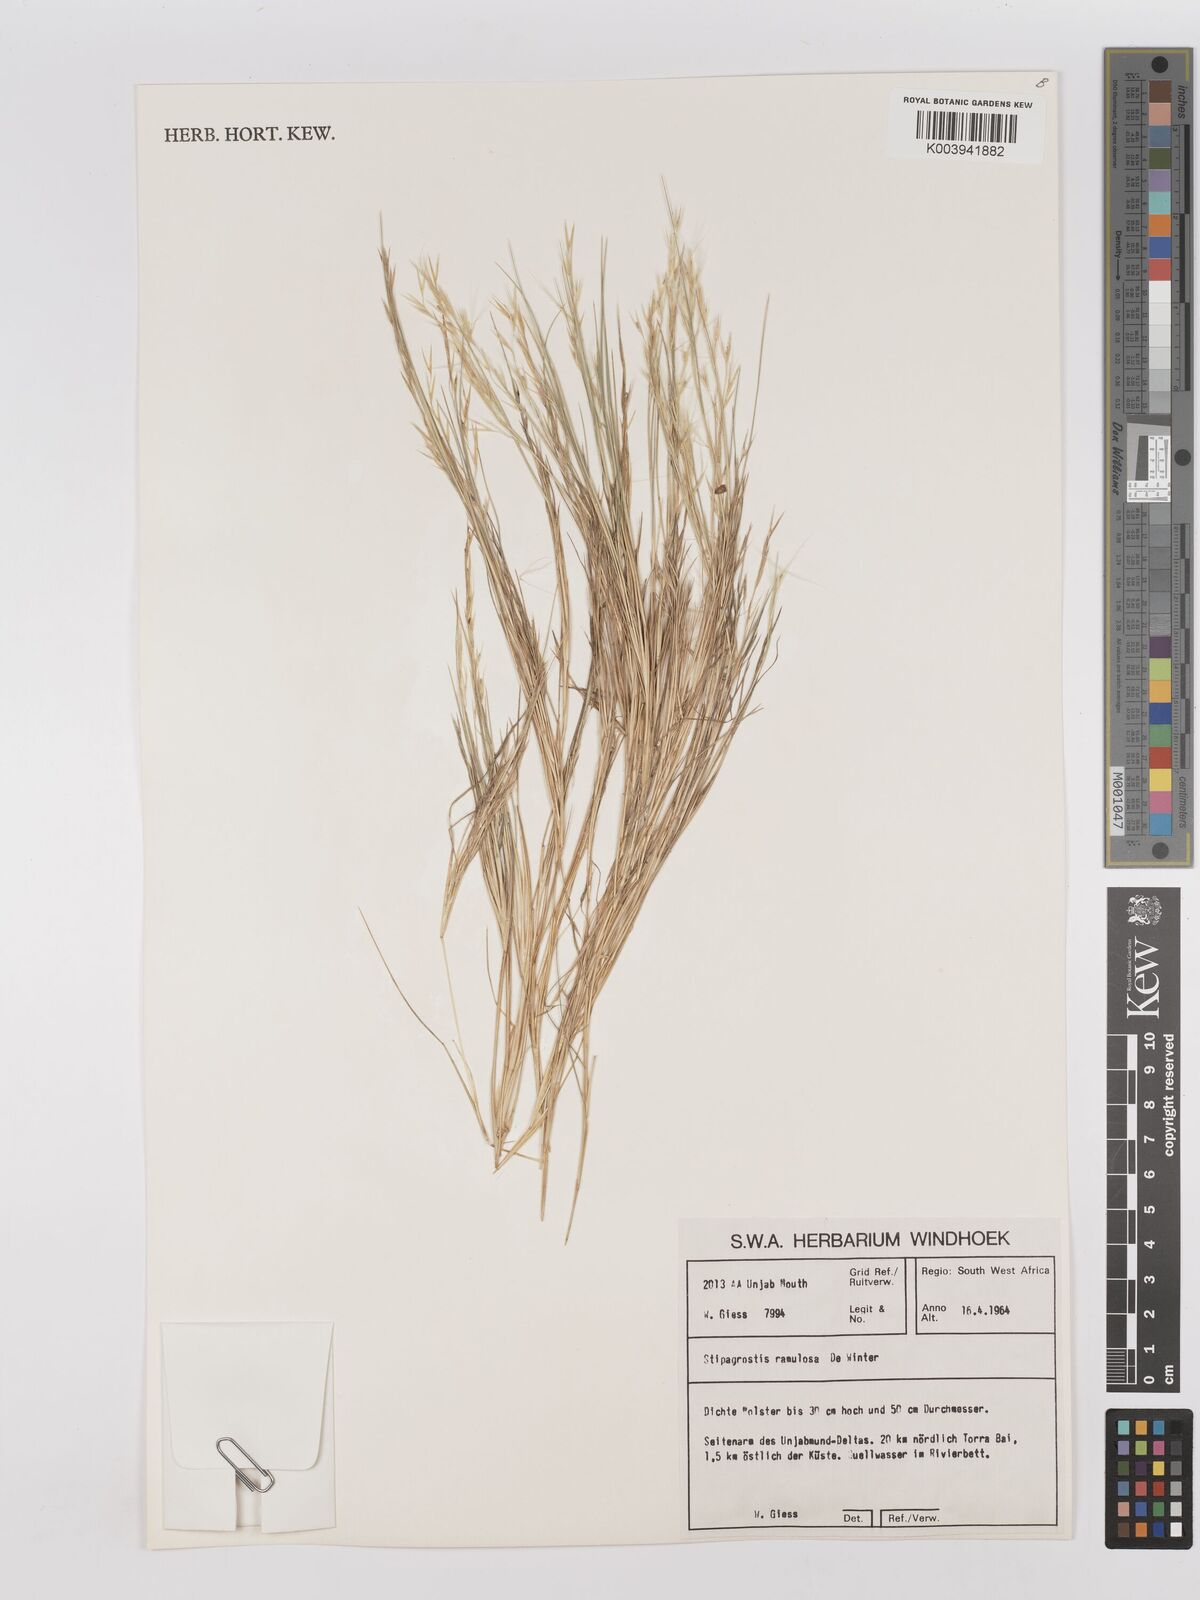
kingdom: Plantae
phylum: Tracheophyta
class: Liliopsida
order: Poales
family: Poaceae
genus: Stipagrostis
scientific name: Stipagrostis ramulosa
